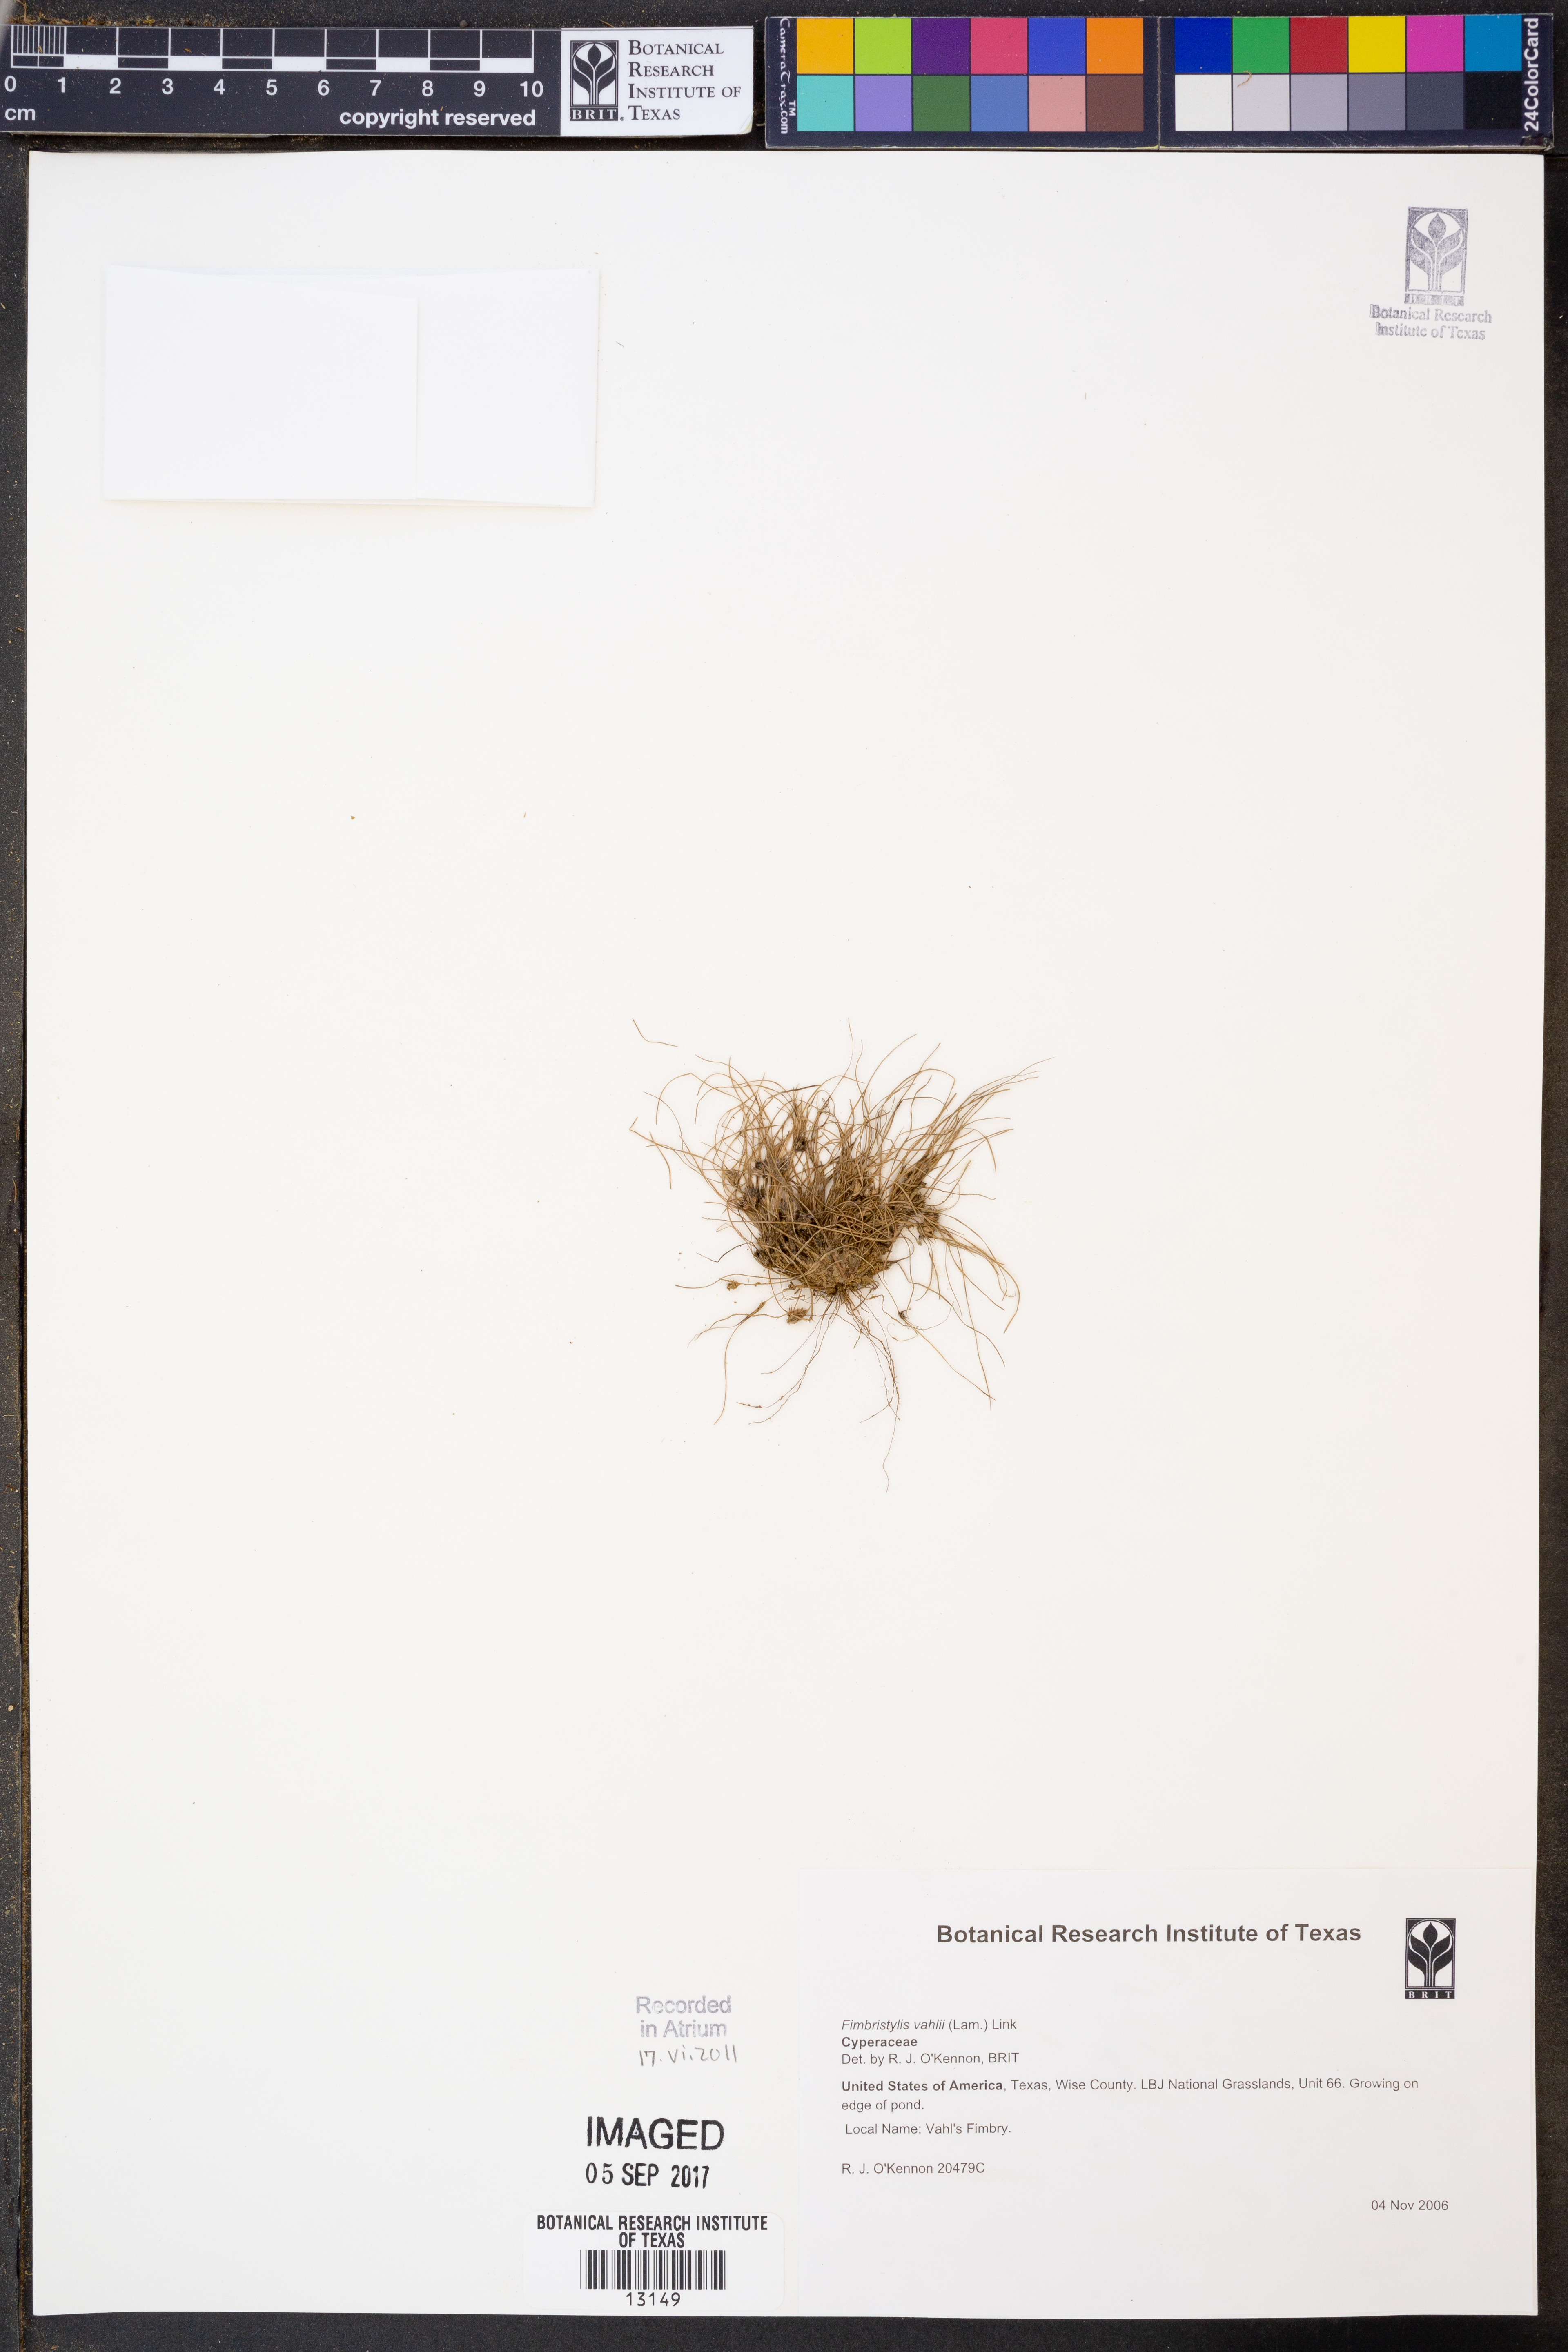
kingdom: Plantae
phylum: Tracheophyta
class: Liliopsida
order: Poales
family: Cyperaceae
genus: Fimbristylis
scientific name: Fimbristylis vahlii
